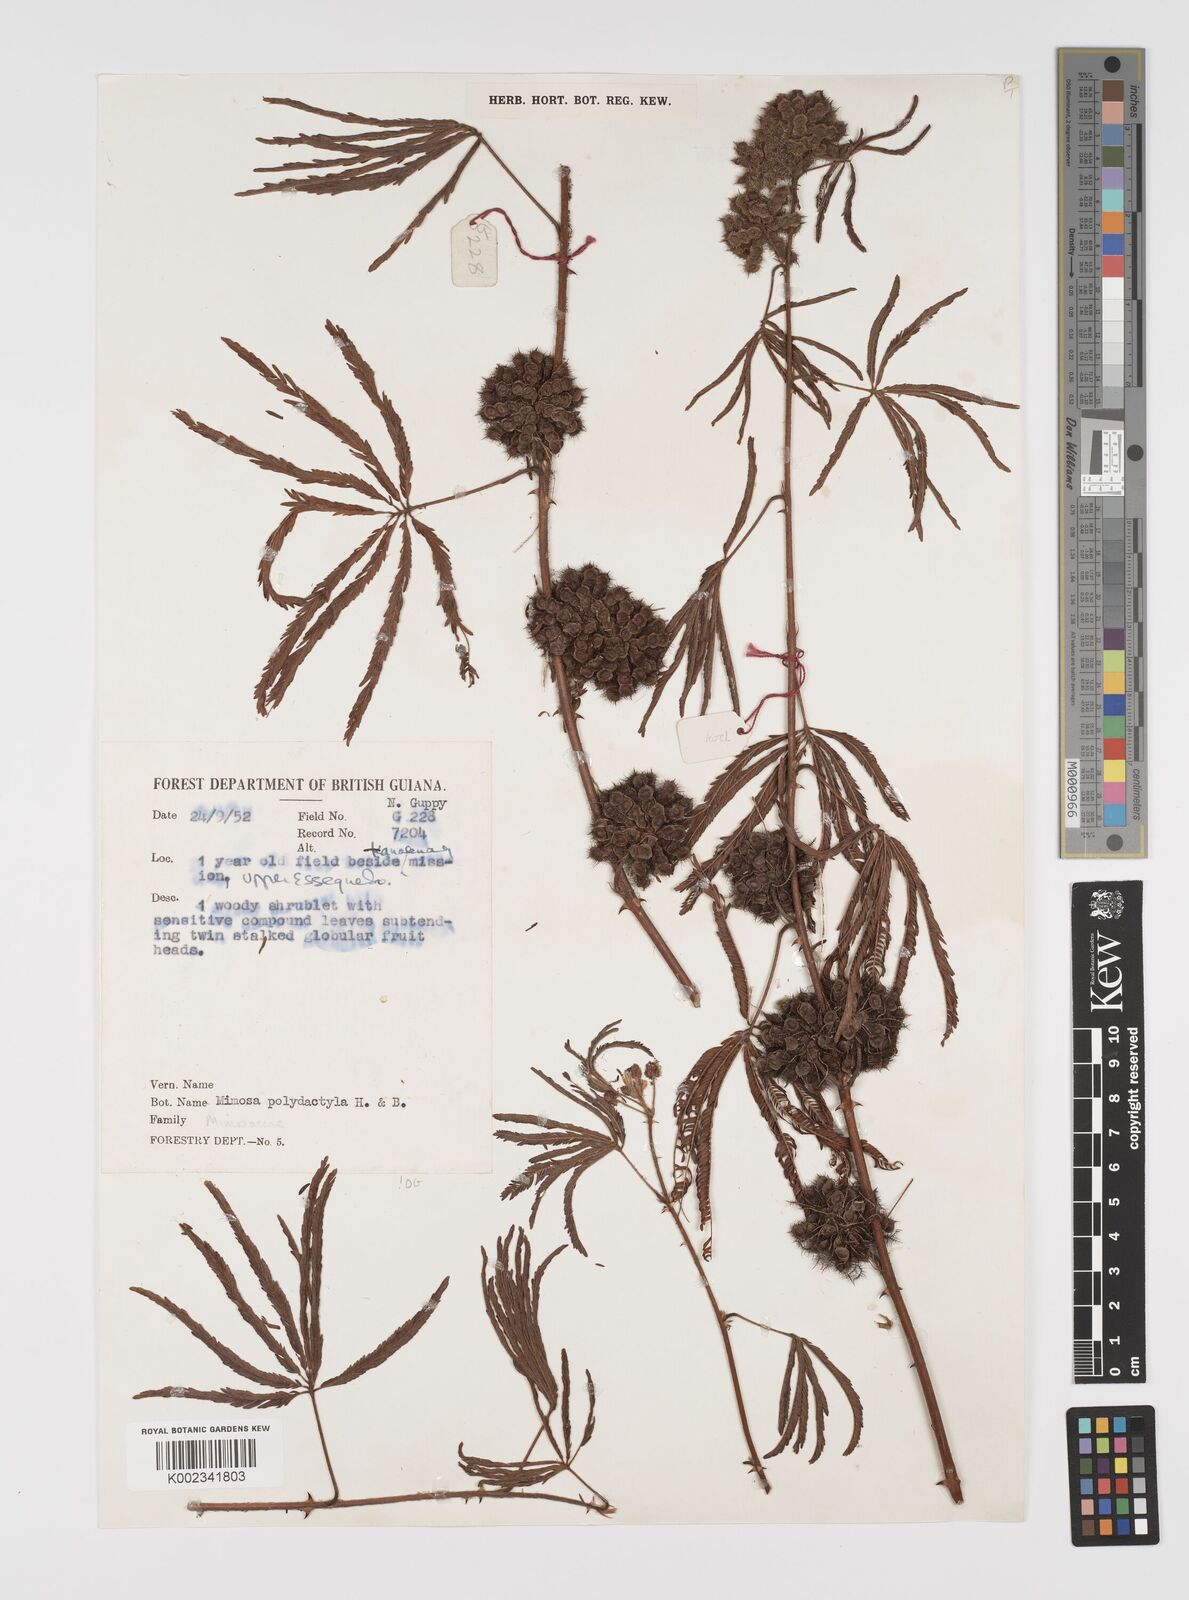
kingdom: Plantae
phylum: Tracheophyta
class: Magnoliopsida
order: Fabales
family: Fabaceae
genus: Mimosa
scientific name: Mimosa polydactyla
